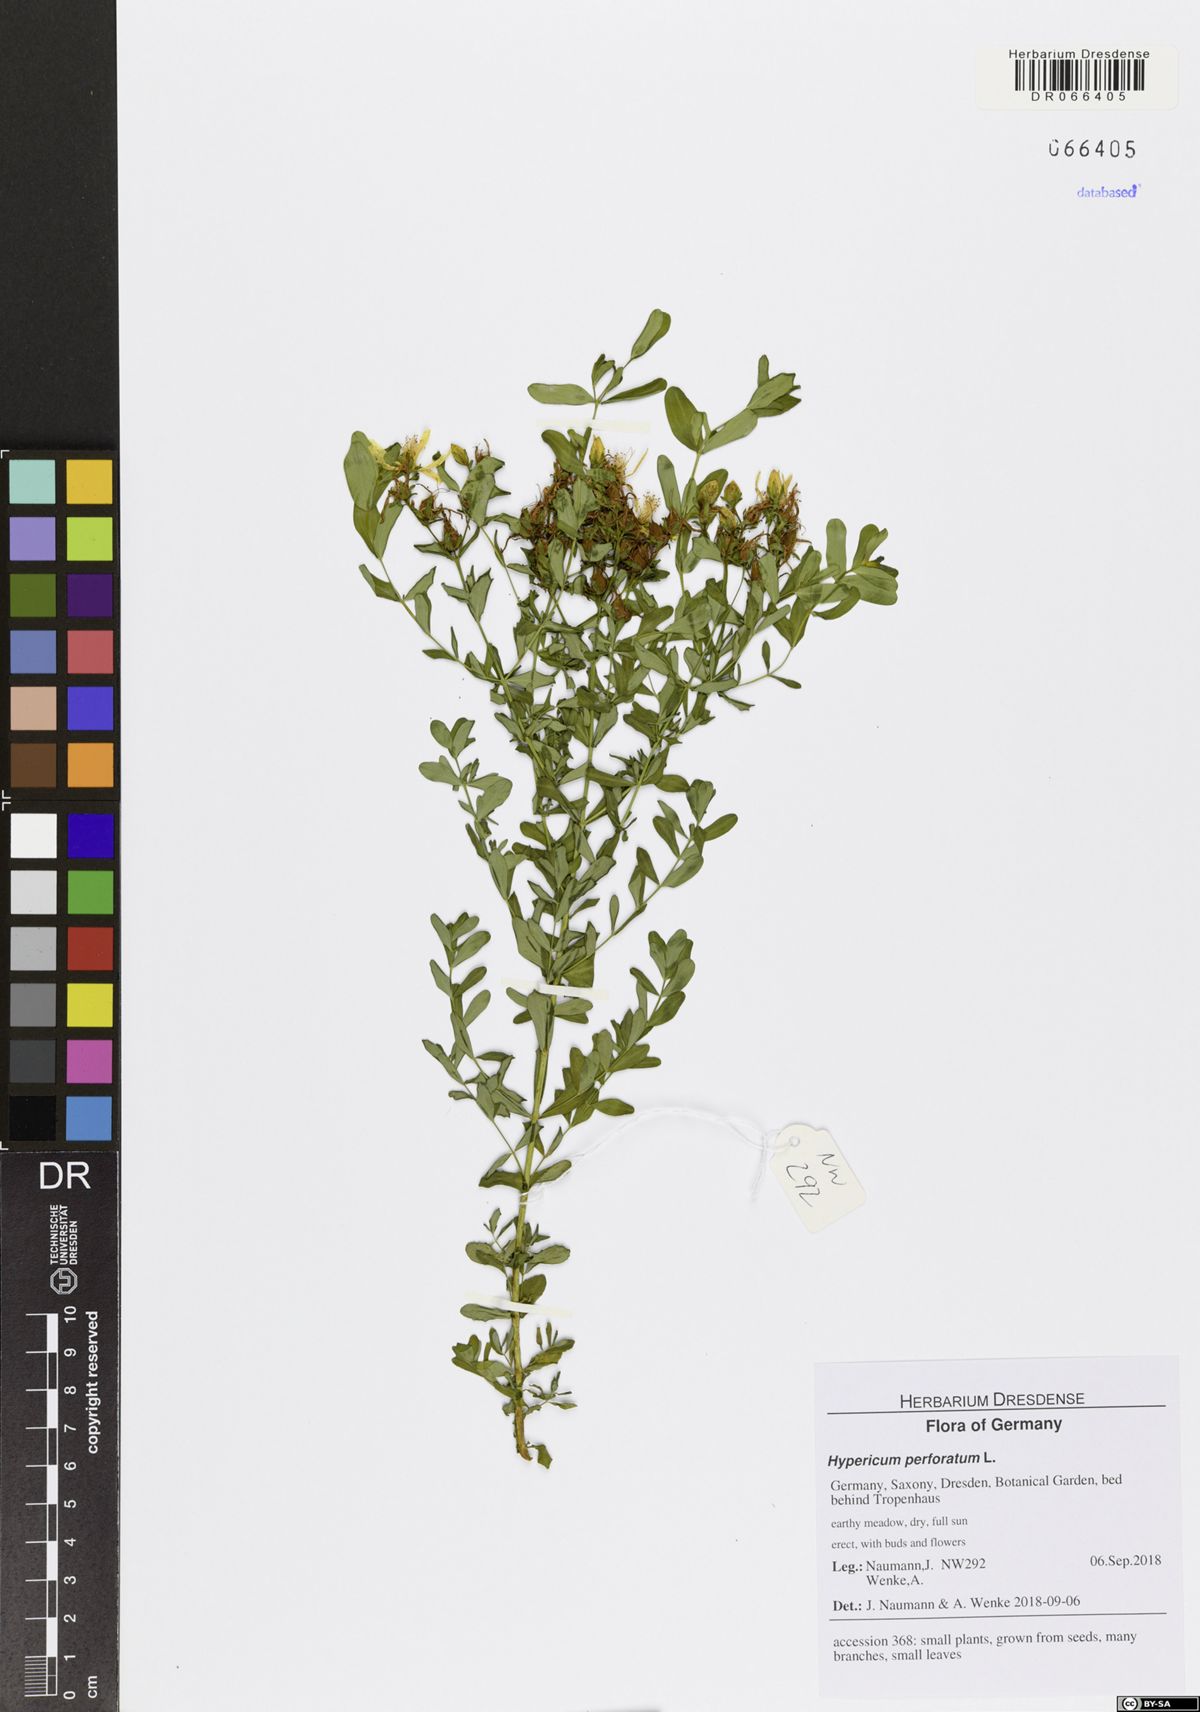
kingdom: Plantae
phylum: Tracheophyta
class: Magnoliopsida
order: Malpighiales
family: Hypericaceae
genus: Hypericum
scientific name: Hypericum perforatum
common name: Common st. johnswort
